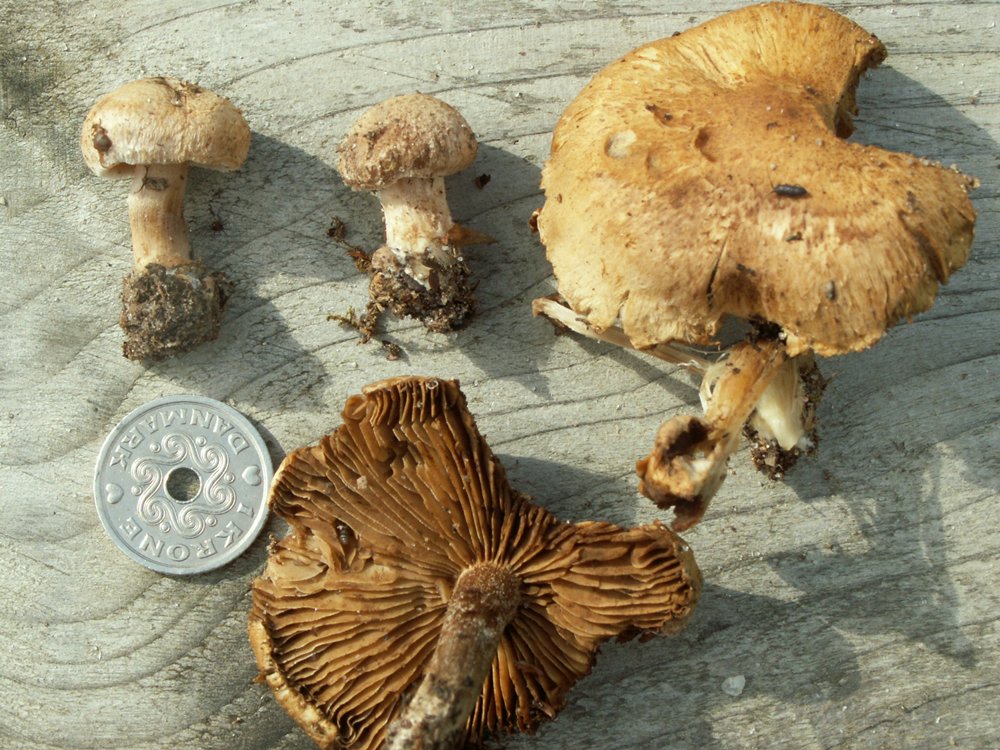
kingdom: Fungi
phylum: Basidiomycota
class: Agaricomycetes
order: Agaricales
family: Inocybaceae
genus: Inocybe
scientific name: Inocybe melanopoda
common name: sortfodet trævlhat
